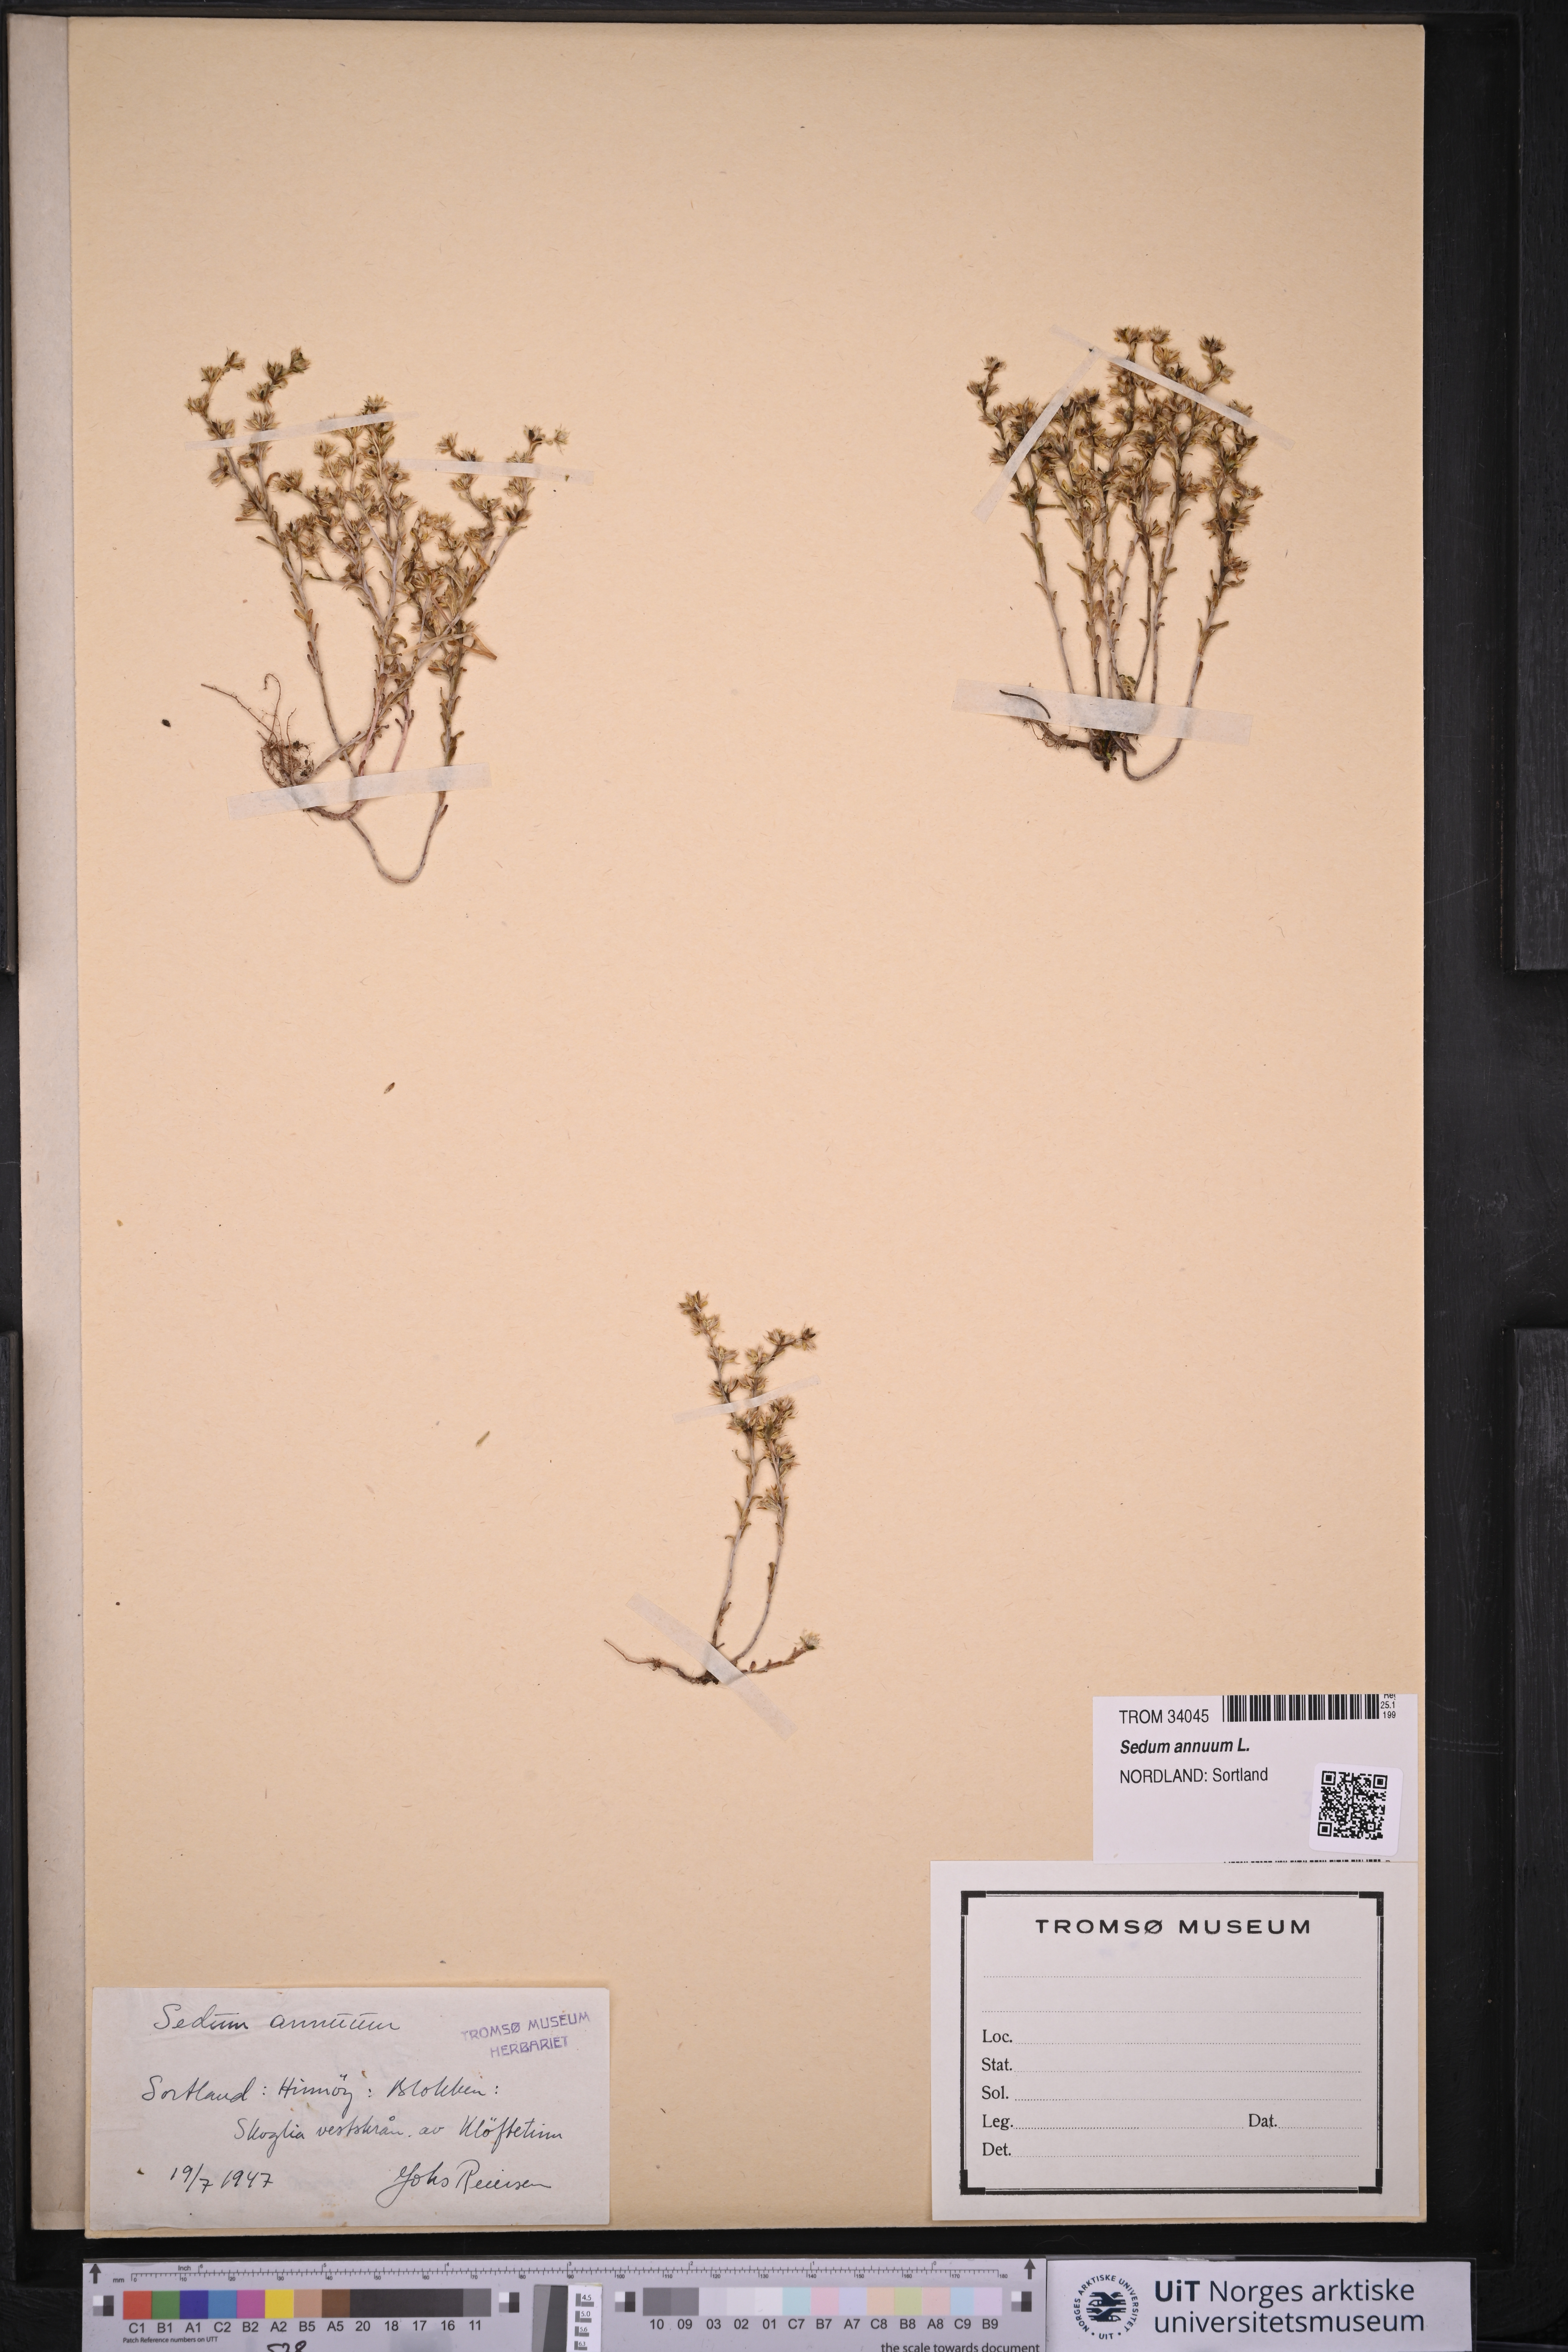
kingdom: Plantae
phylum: Tracheophyta
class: Magnoliopsida
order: Saxifragales
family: Crassulaceae
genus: Sedum
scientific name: Sedum annuum
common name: Annual stonecrop
